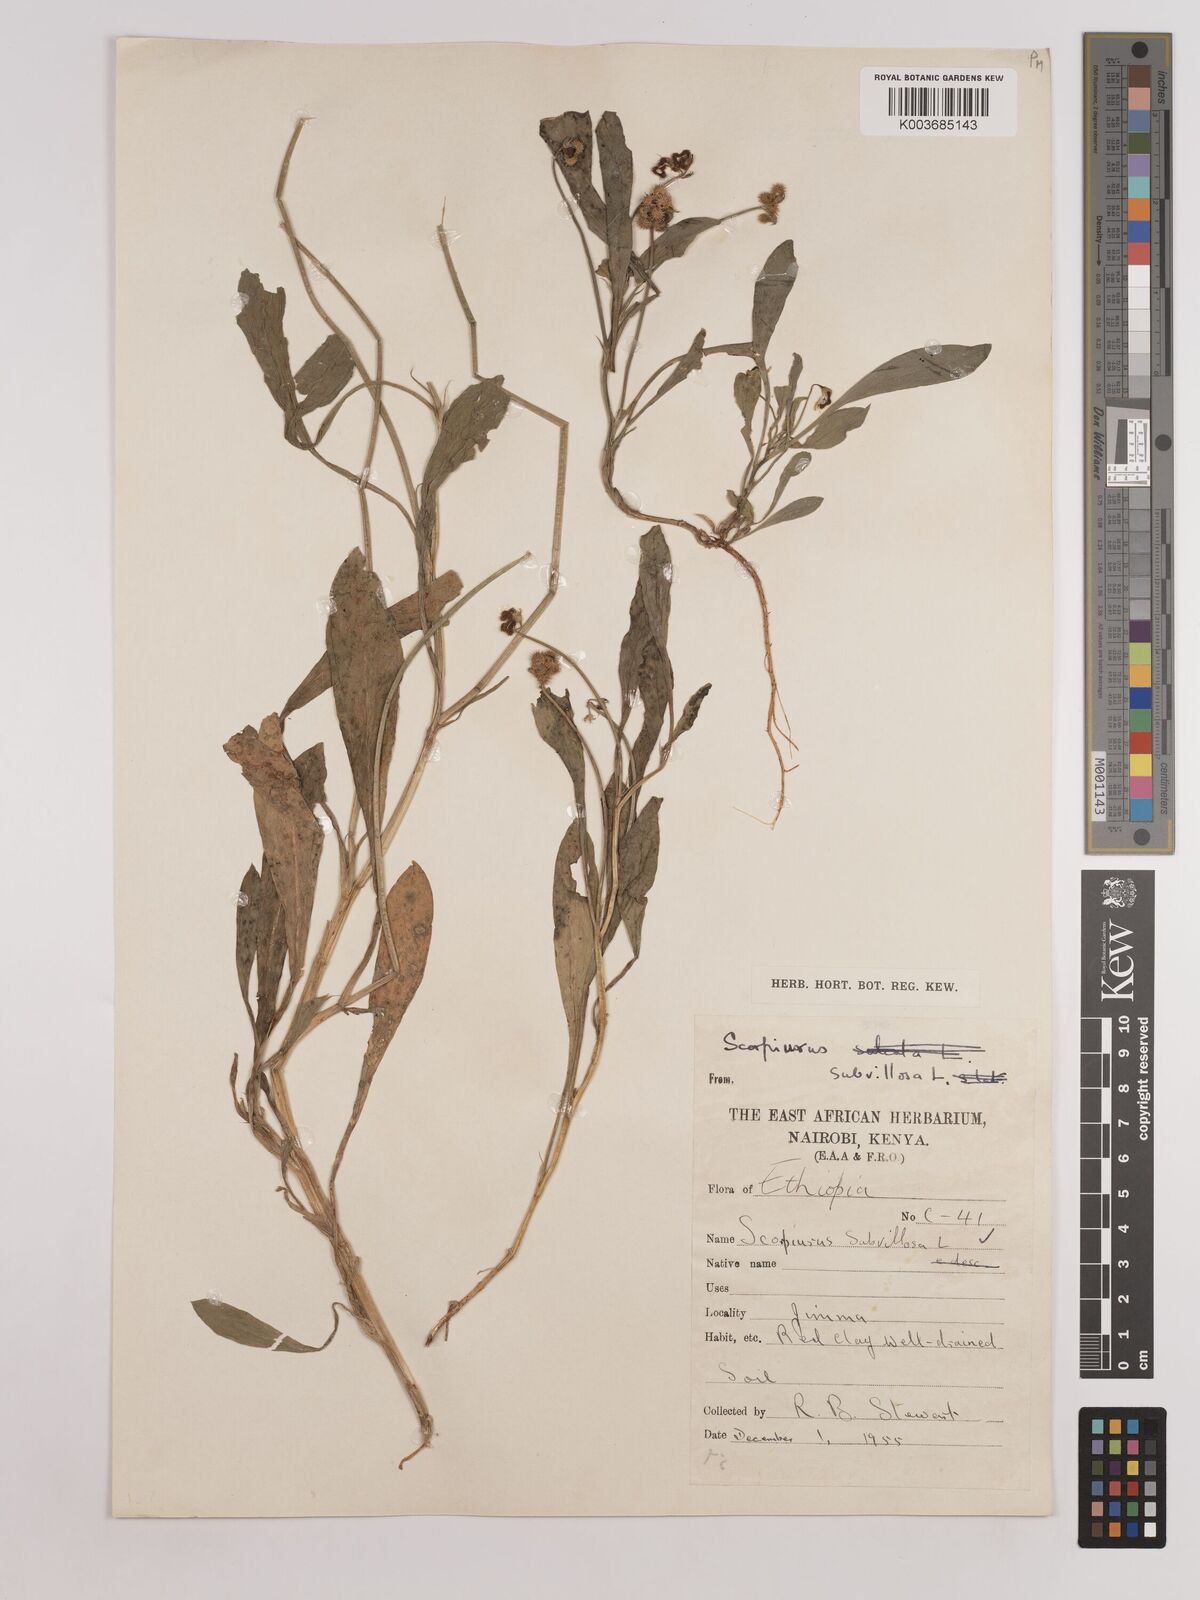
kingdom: Plantae
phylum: Tracheophyta
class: Magnoliopsida
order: Fabales
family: Fabaceae
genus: Scorpiurus
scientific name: Scorpiurus muricatus
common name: Caterpillar-plant
